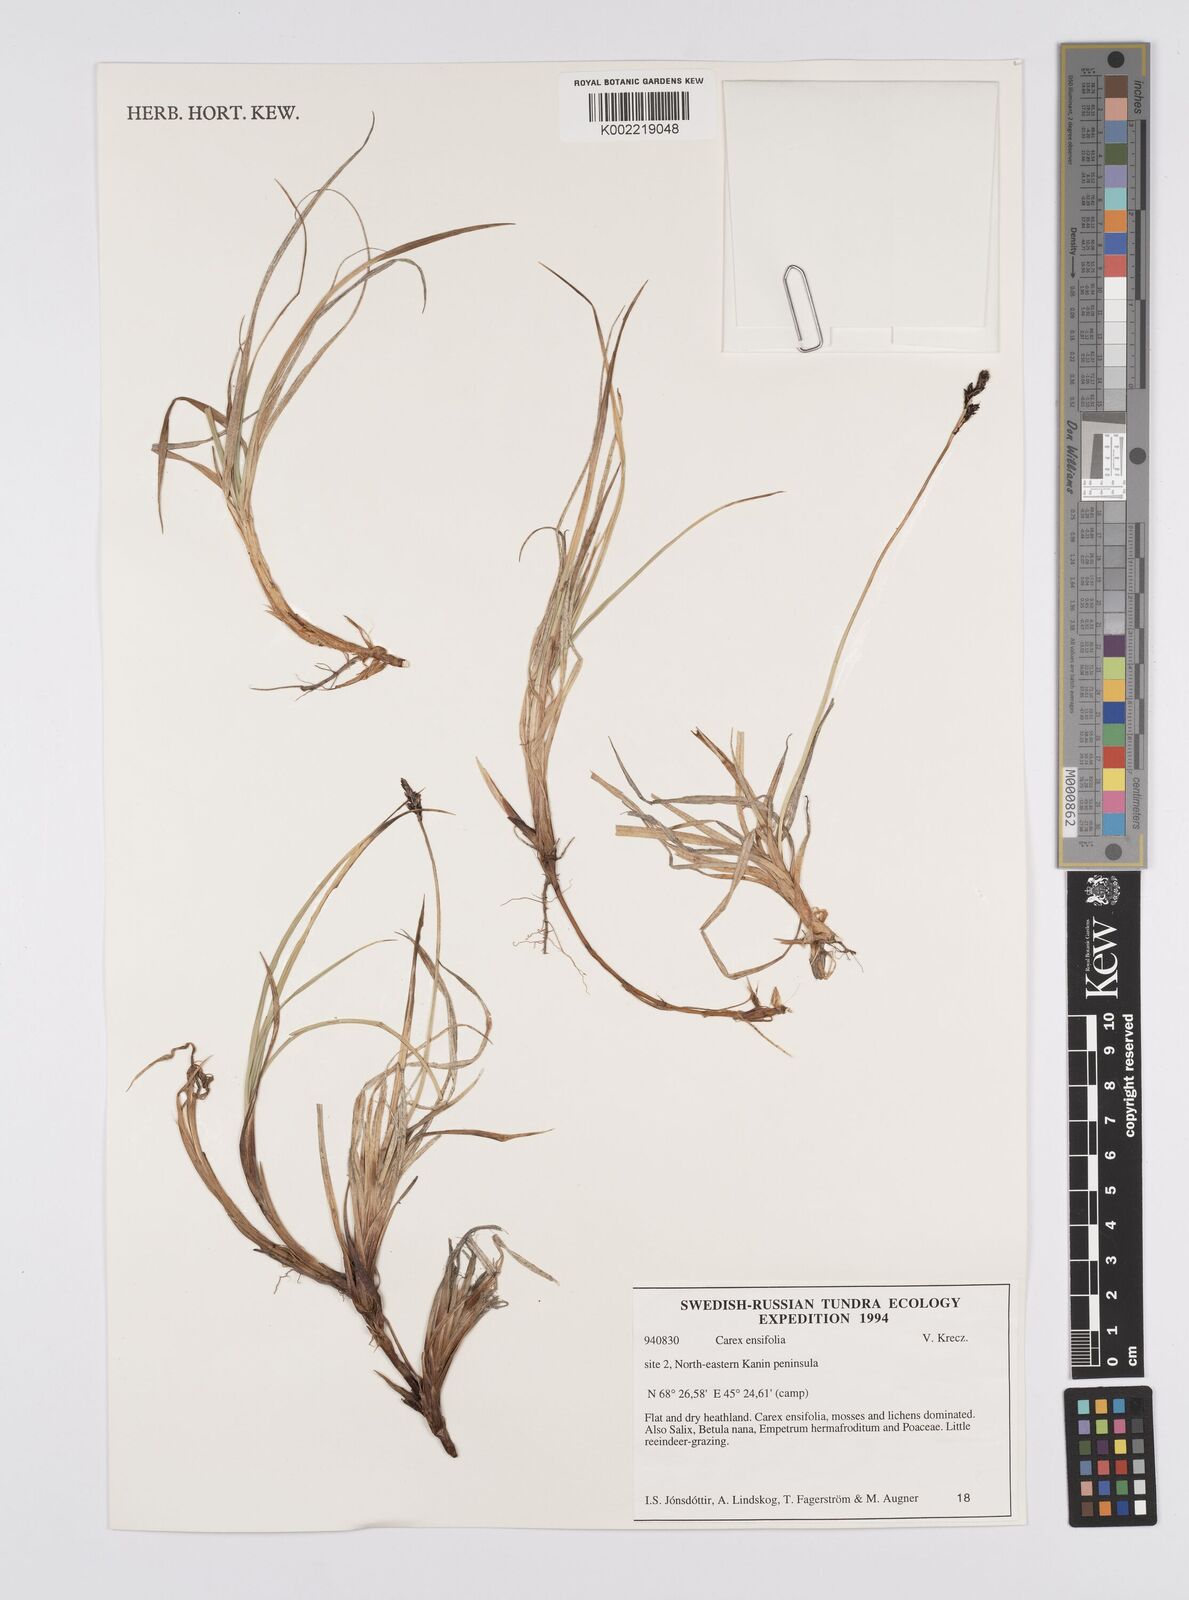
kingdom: Plantae
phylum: Tracheophyta
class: Liliopsida
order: Poales
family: Cyperaceae
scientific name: Cyperaceae
